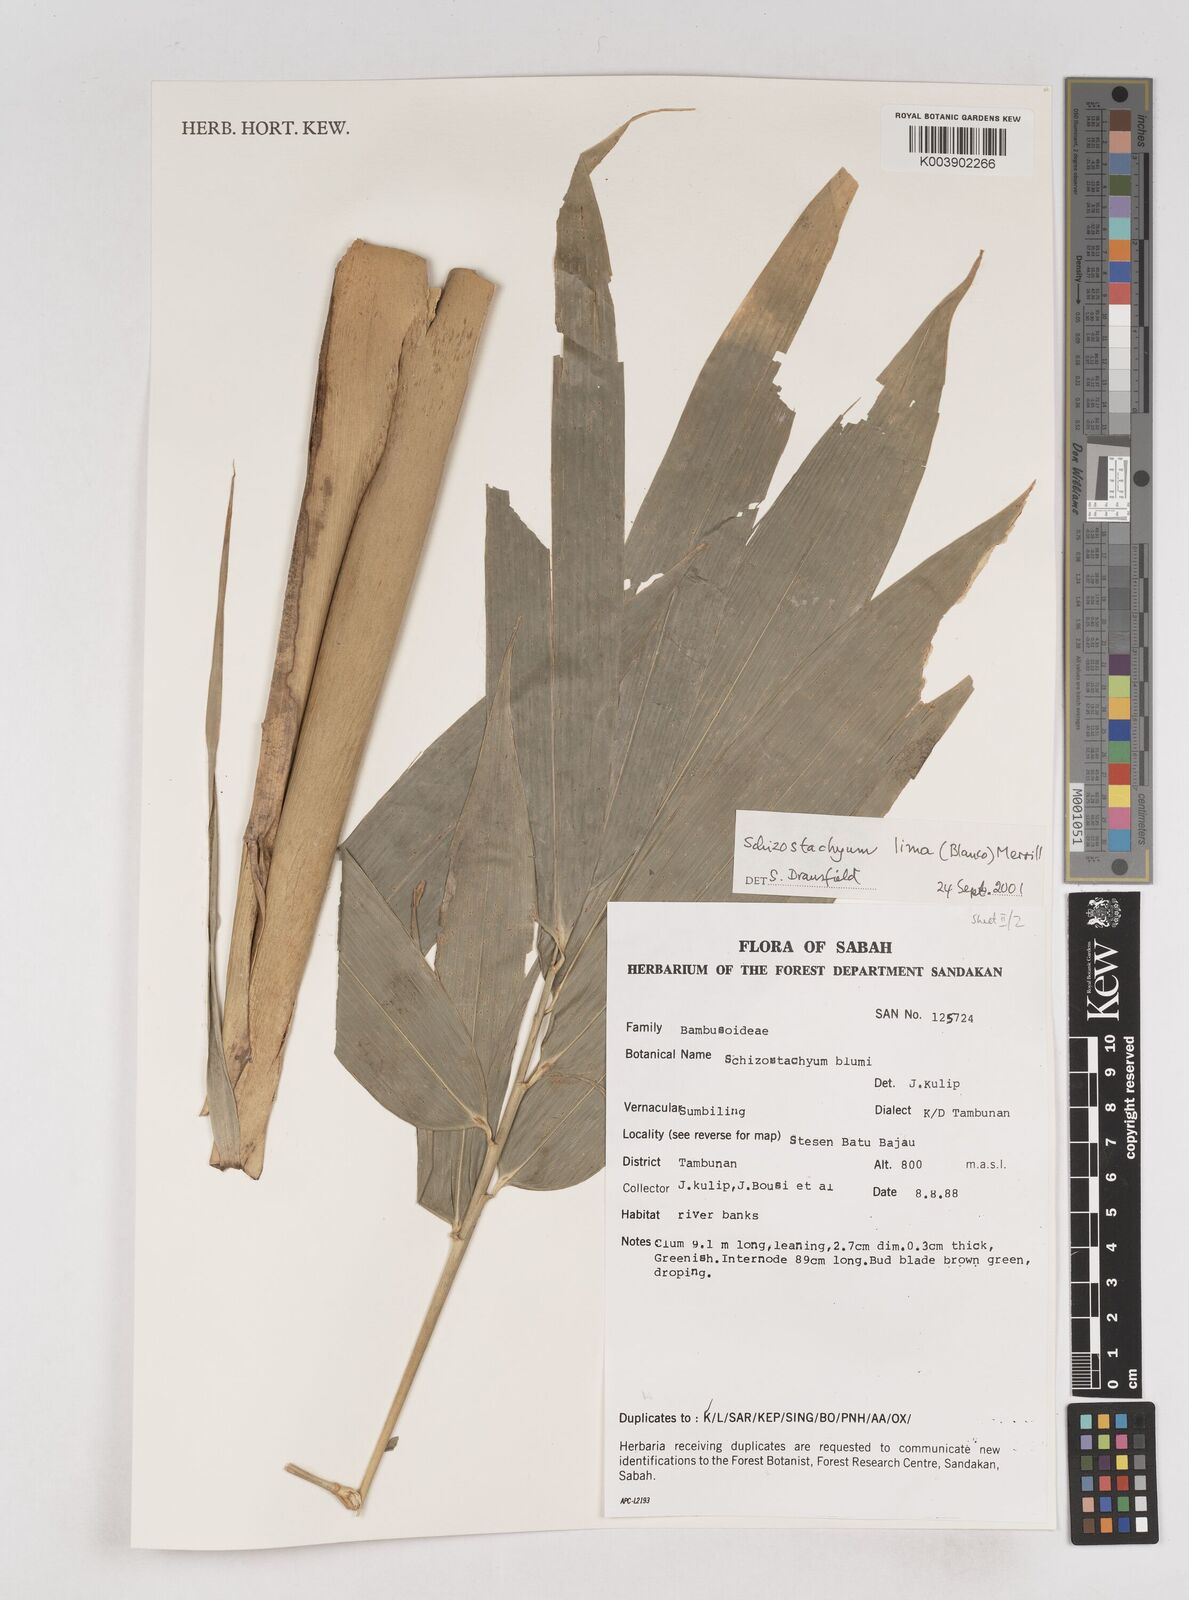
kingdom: Plantae
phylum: Tracheophyta
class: Liliopsida
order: Poales
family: Poaceae
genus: Schizostachyum
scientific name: Schizostachyum lima
